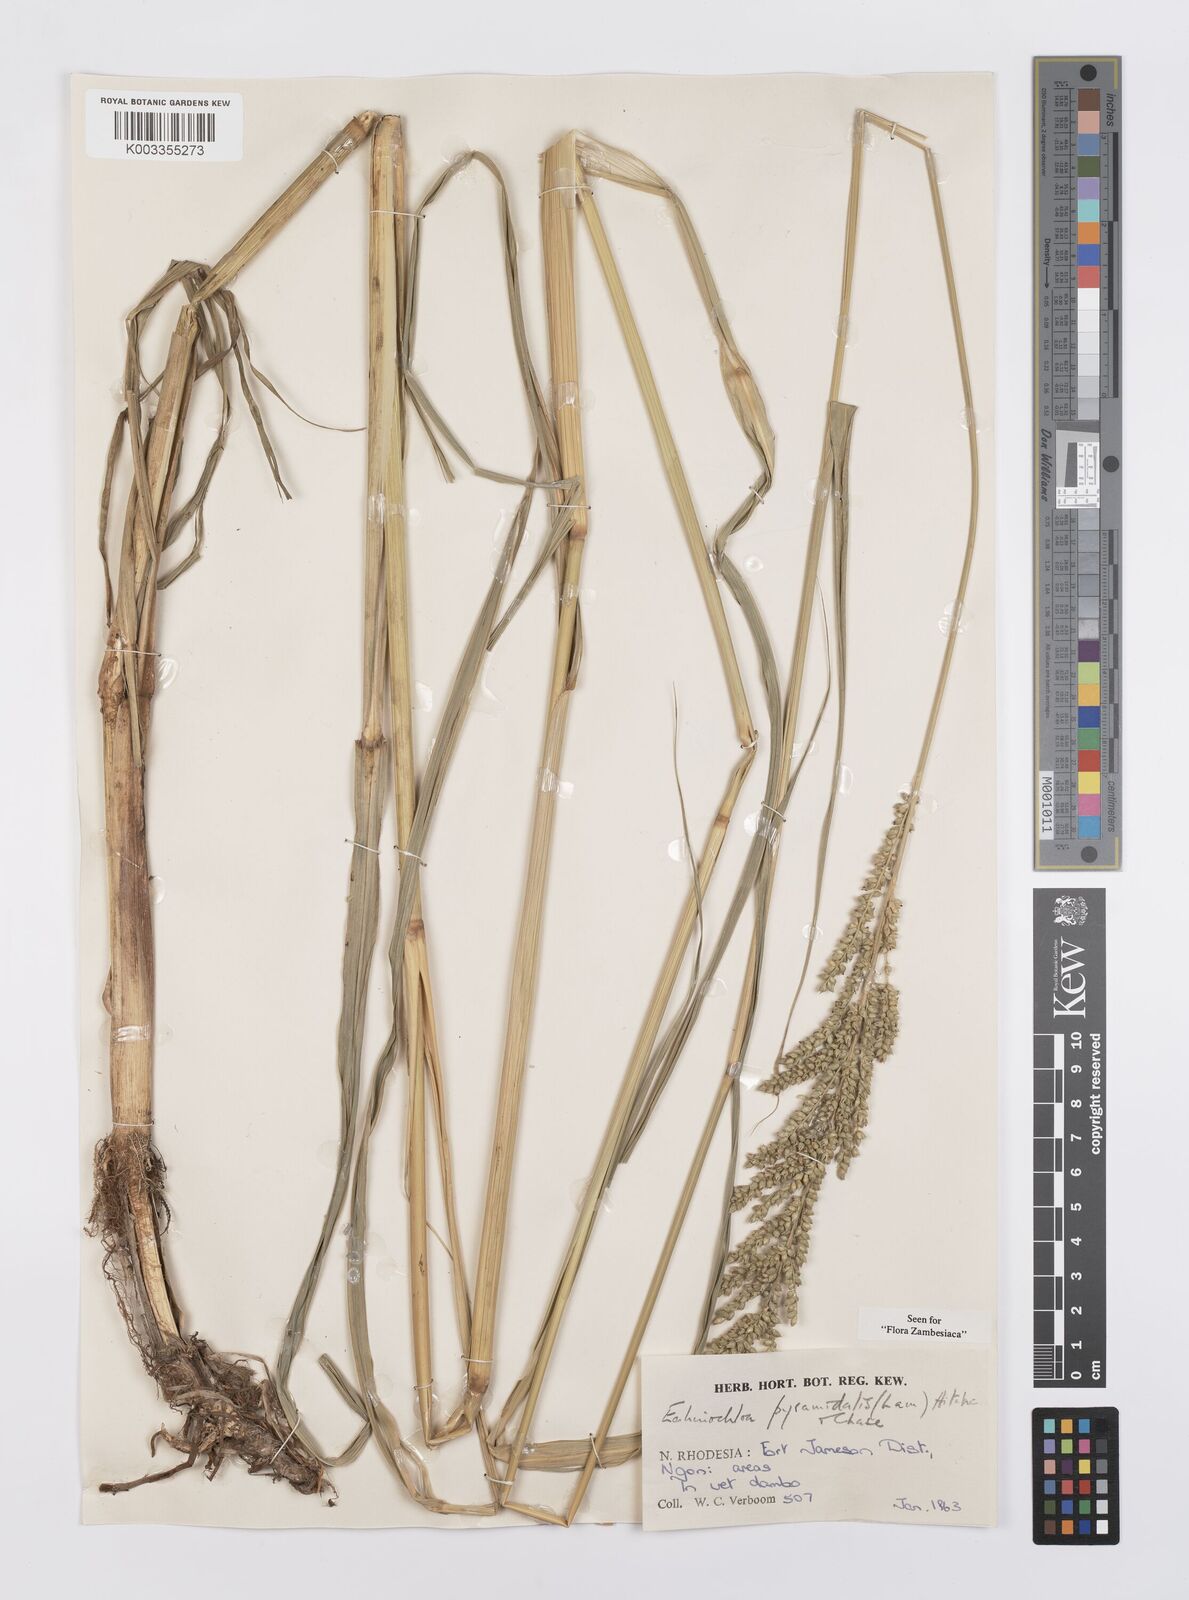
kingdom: Plantae
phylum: Tracheophyta
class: Liliopsida
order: Poales
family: Poaceae
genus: Echinochloa
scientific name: Echinochloa pyramidalis
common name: Antelope grass
